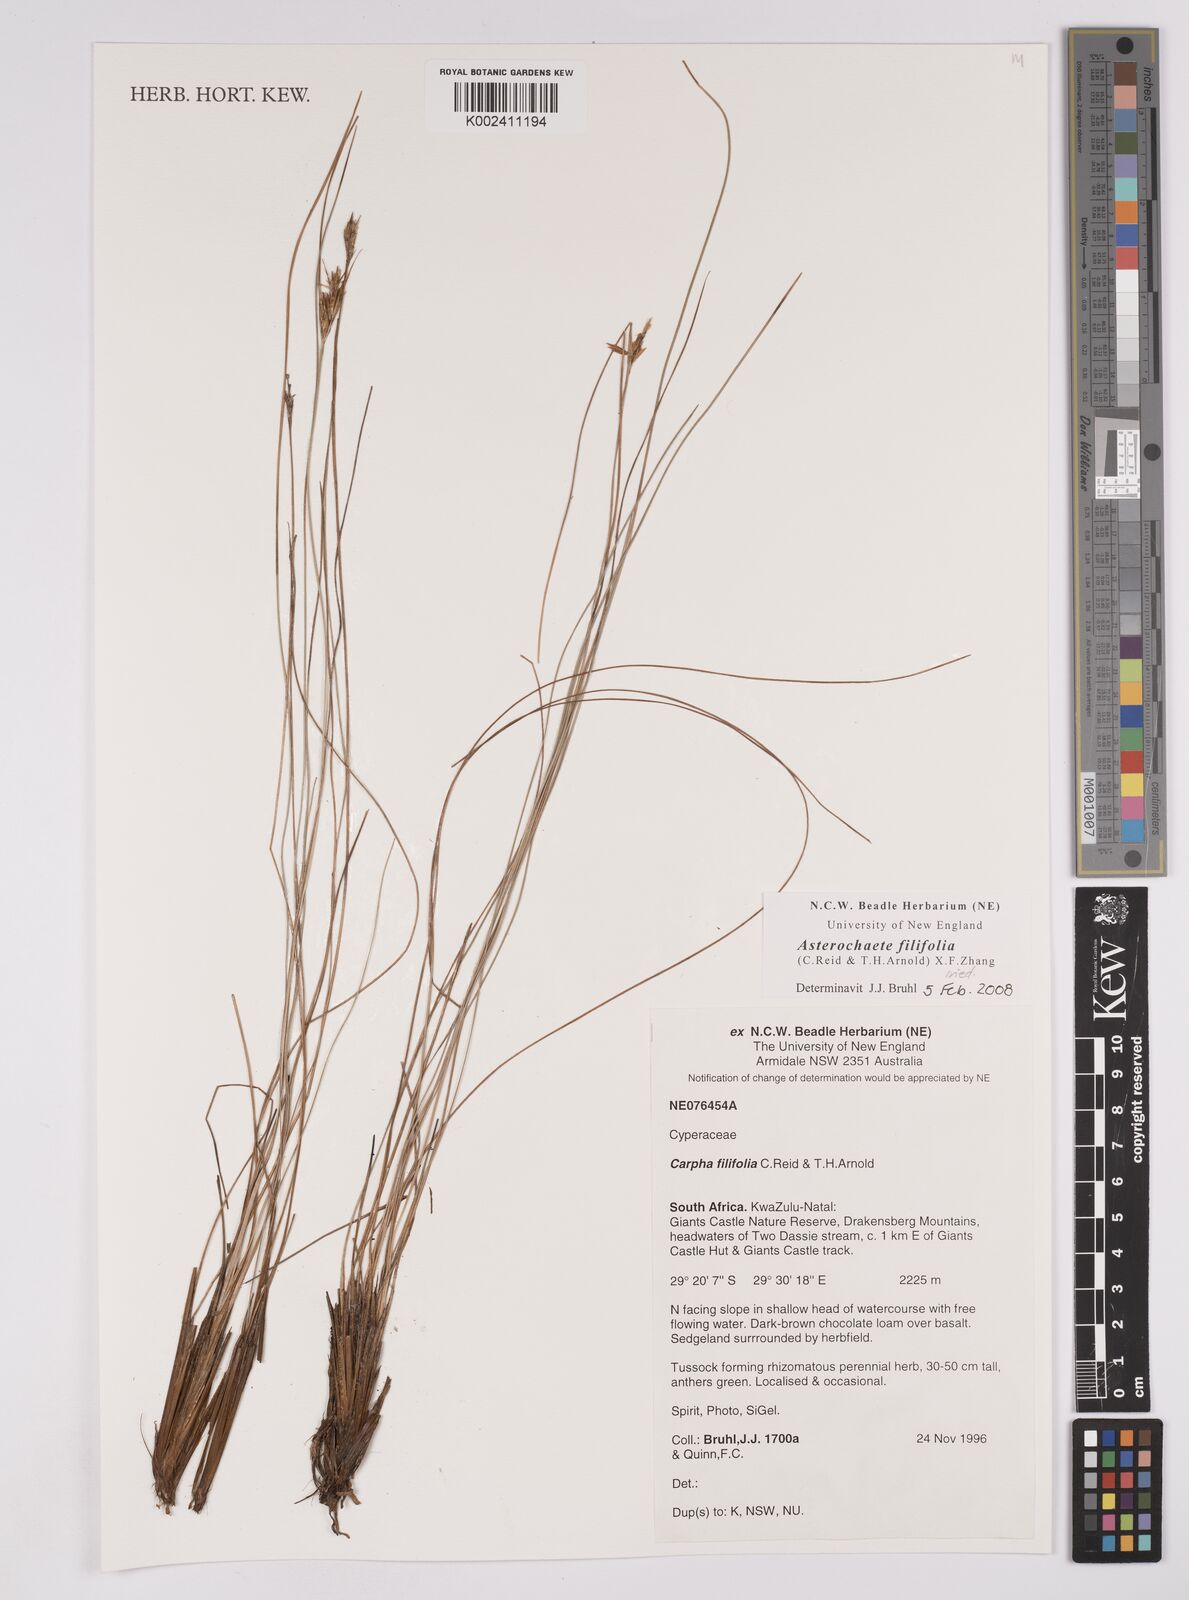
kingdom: Plantae
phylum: Tracheophyta
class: Liliopsida
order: Poales
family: Cyperaceae
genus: Carpha
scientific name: Carpha filifolia
